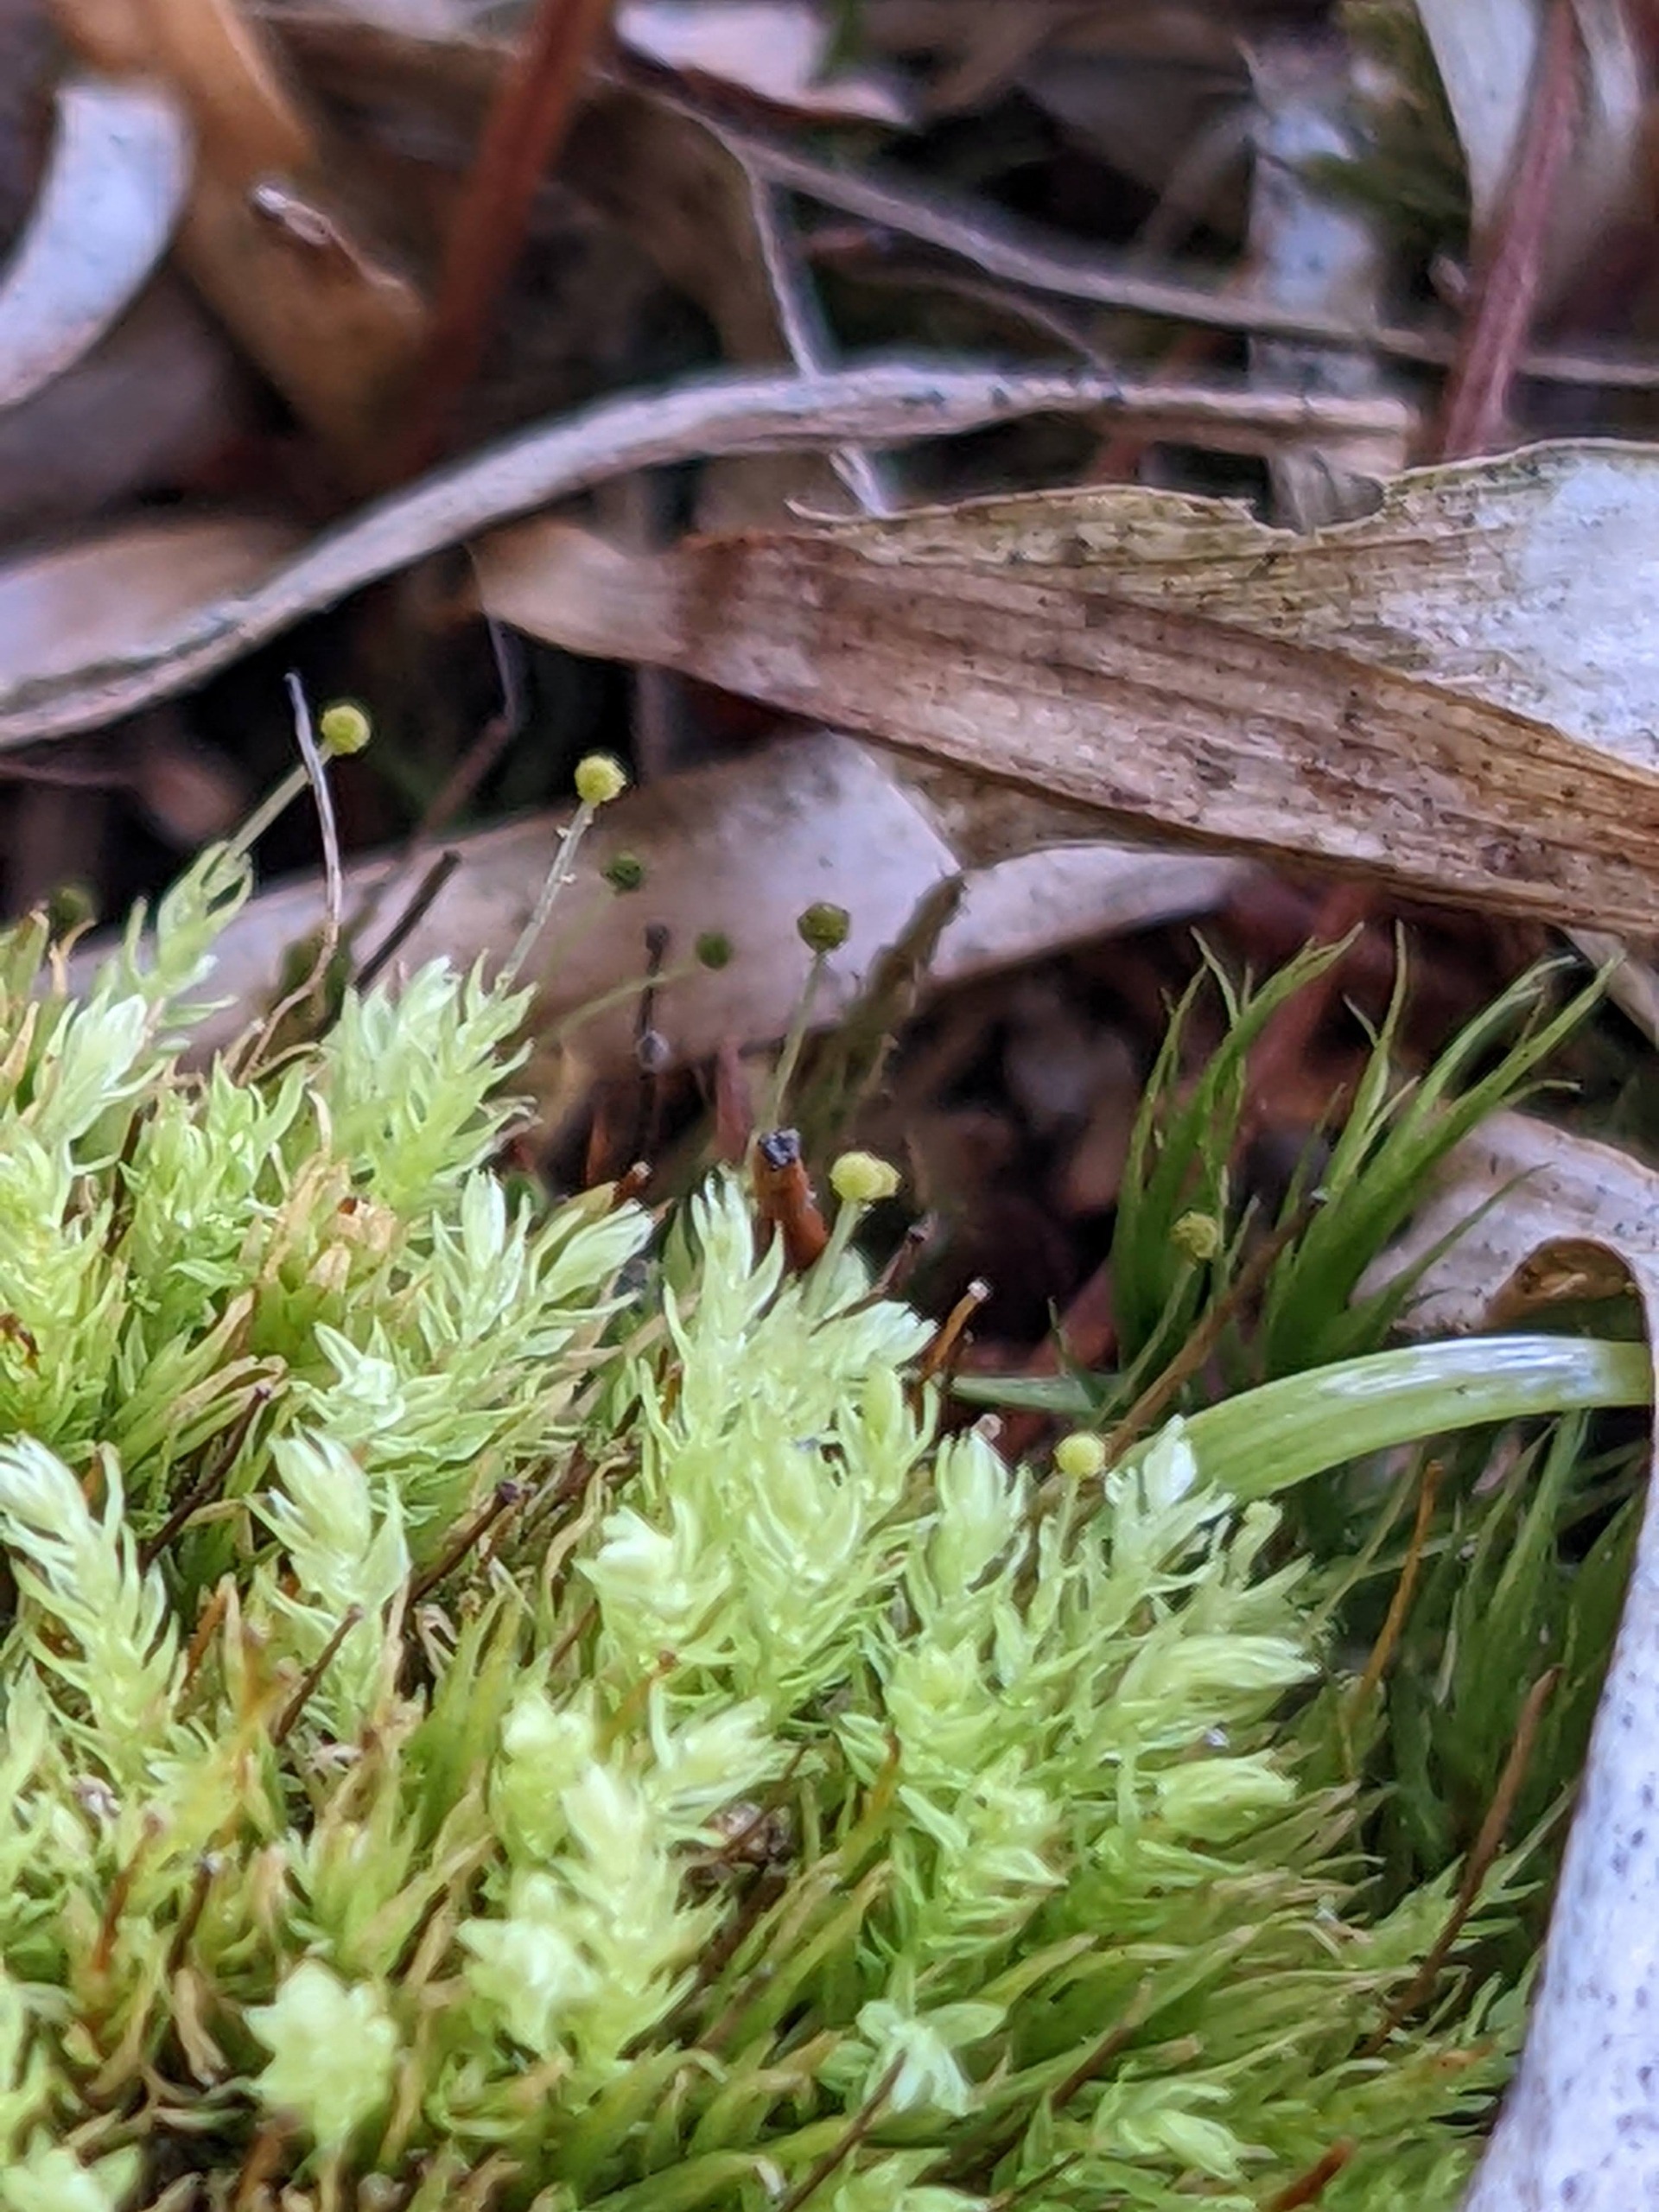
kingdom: Plantae
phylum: Bryophyta
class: Bryopsida
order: Aulacomniales
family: Aulacomniaceae
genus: Aulacomnium
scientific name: Aulacomnium androgynum
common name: Kugle-filtmos
